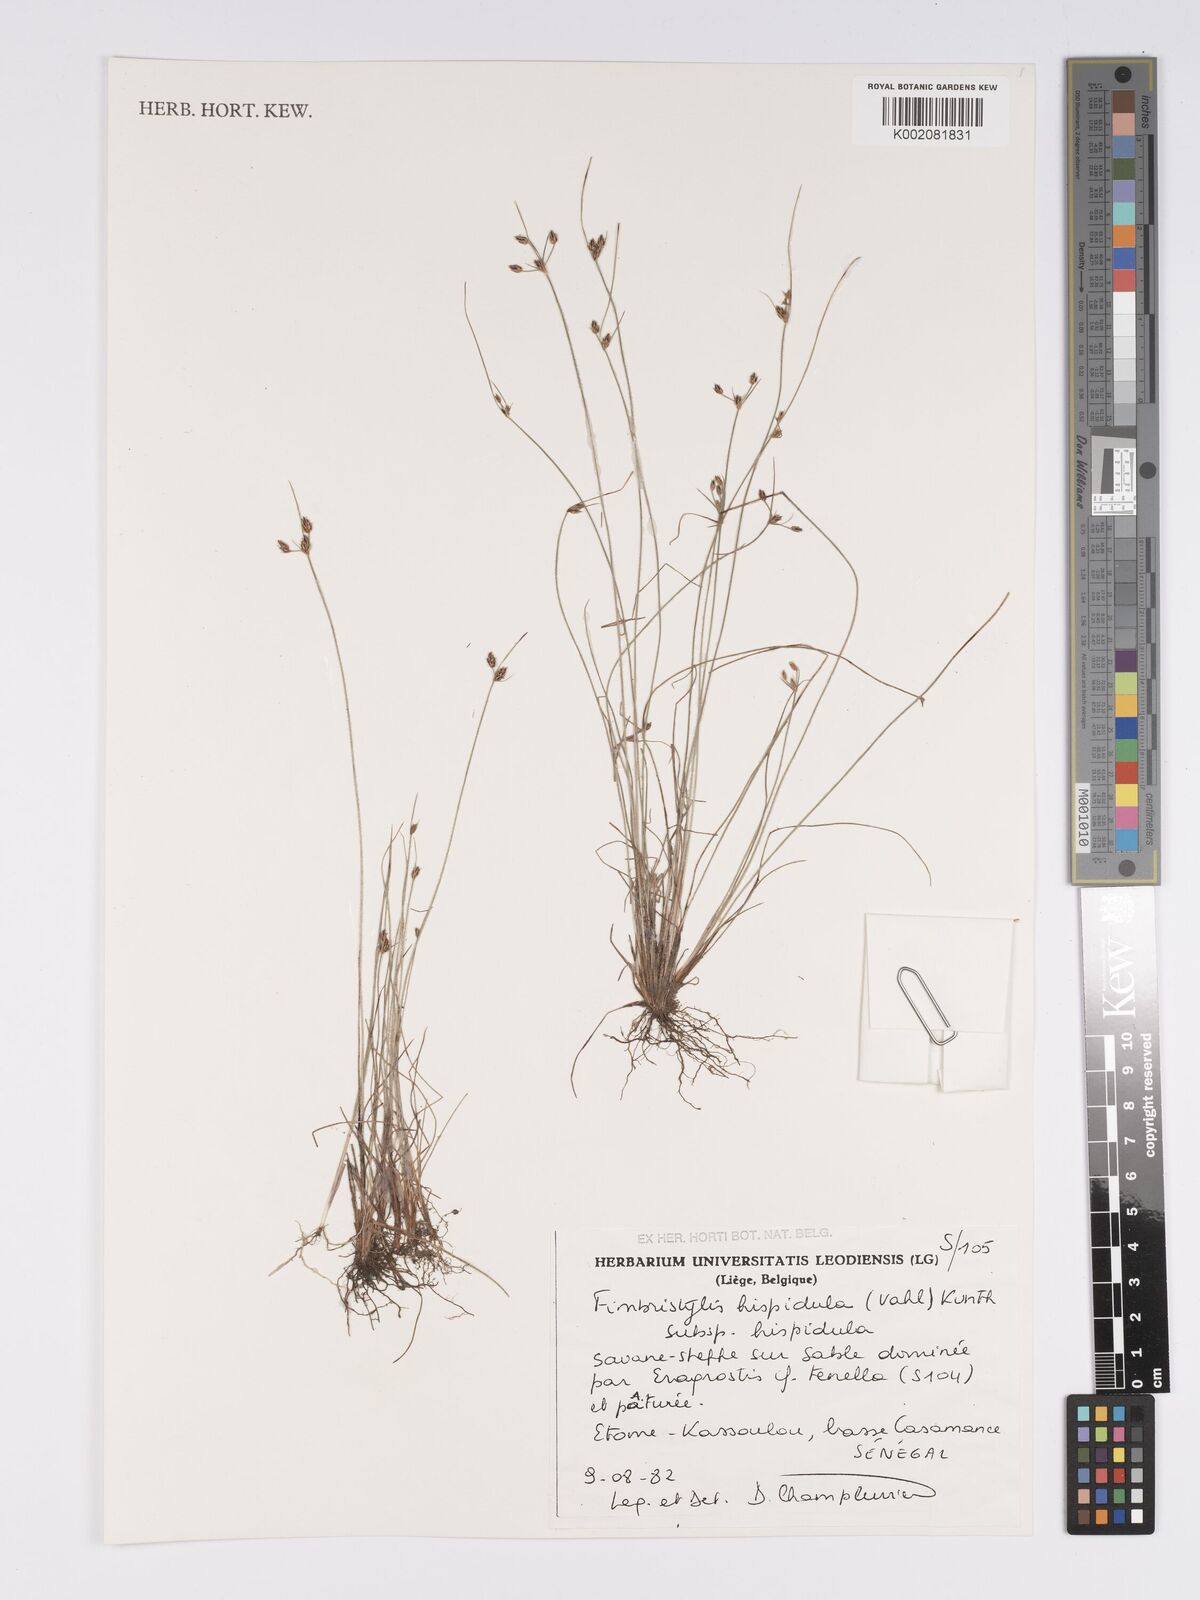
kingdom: Plantae
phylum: Tracheophyta
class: Liliopsida
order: Poales
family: Cyperaceae
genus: Bulbostylis
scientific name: Bulbostylis hispidula
